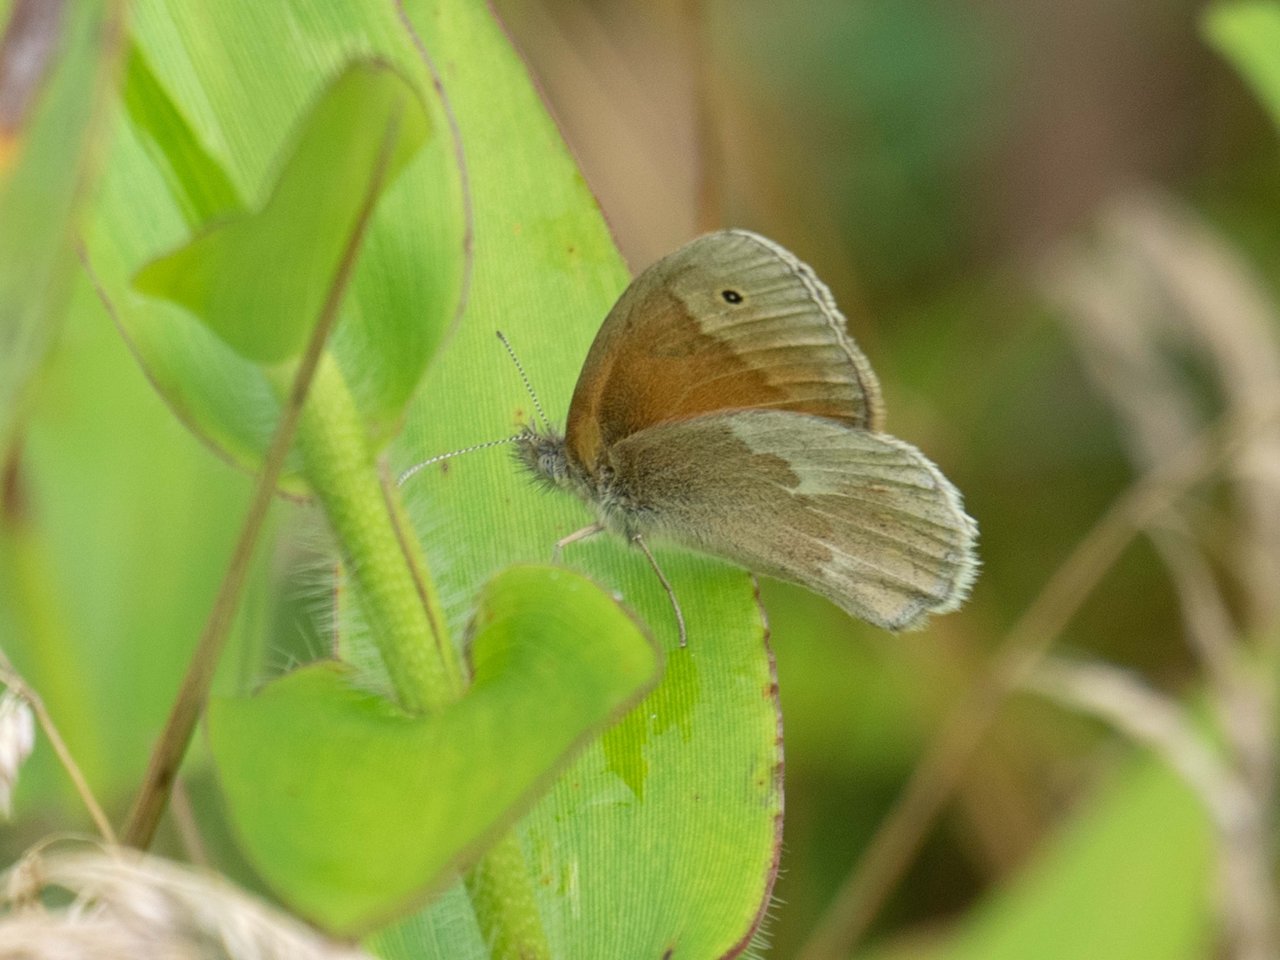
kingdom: Animalia
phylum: Arthropoda
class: Insecta
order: Lepidoptera
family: Nymphalidae
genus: Coenonympha
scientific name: Coenonympha tullia
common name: Large Heath
